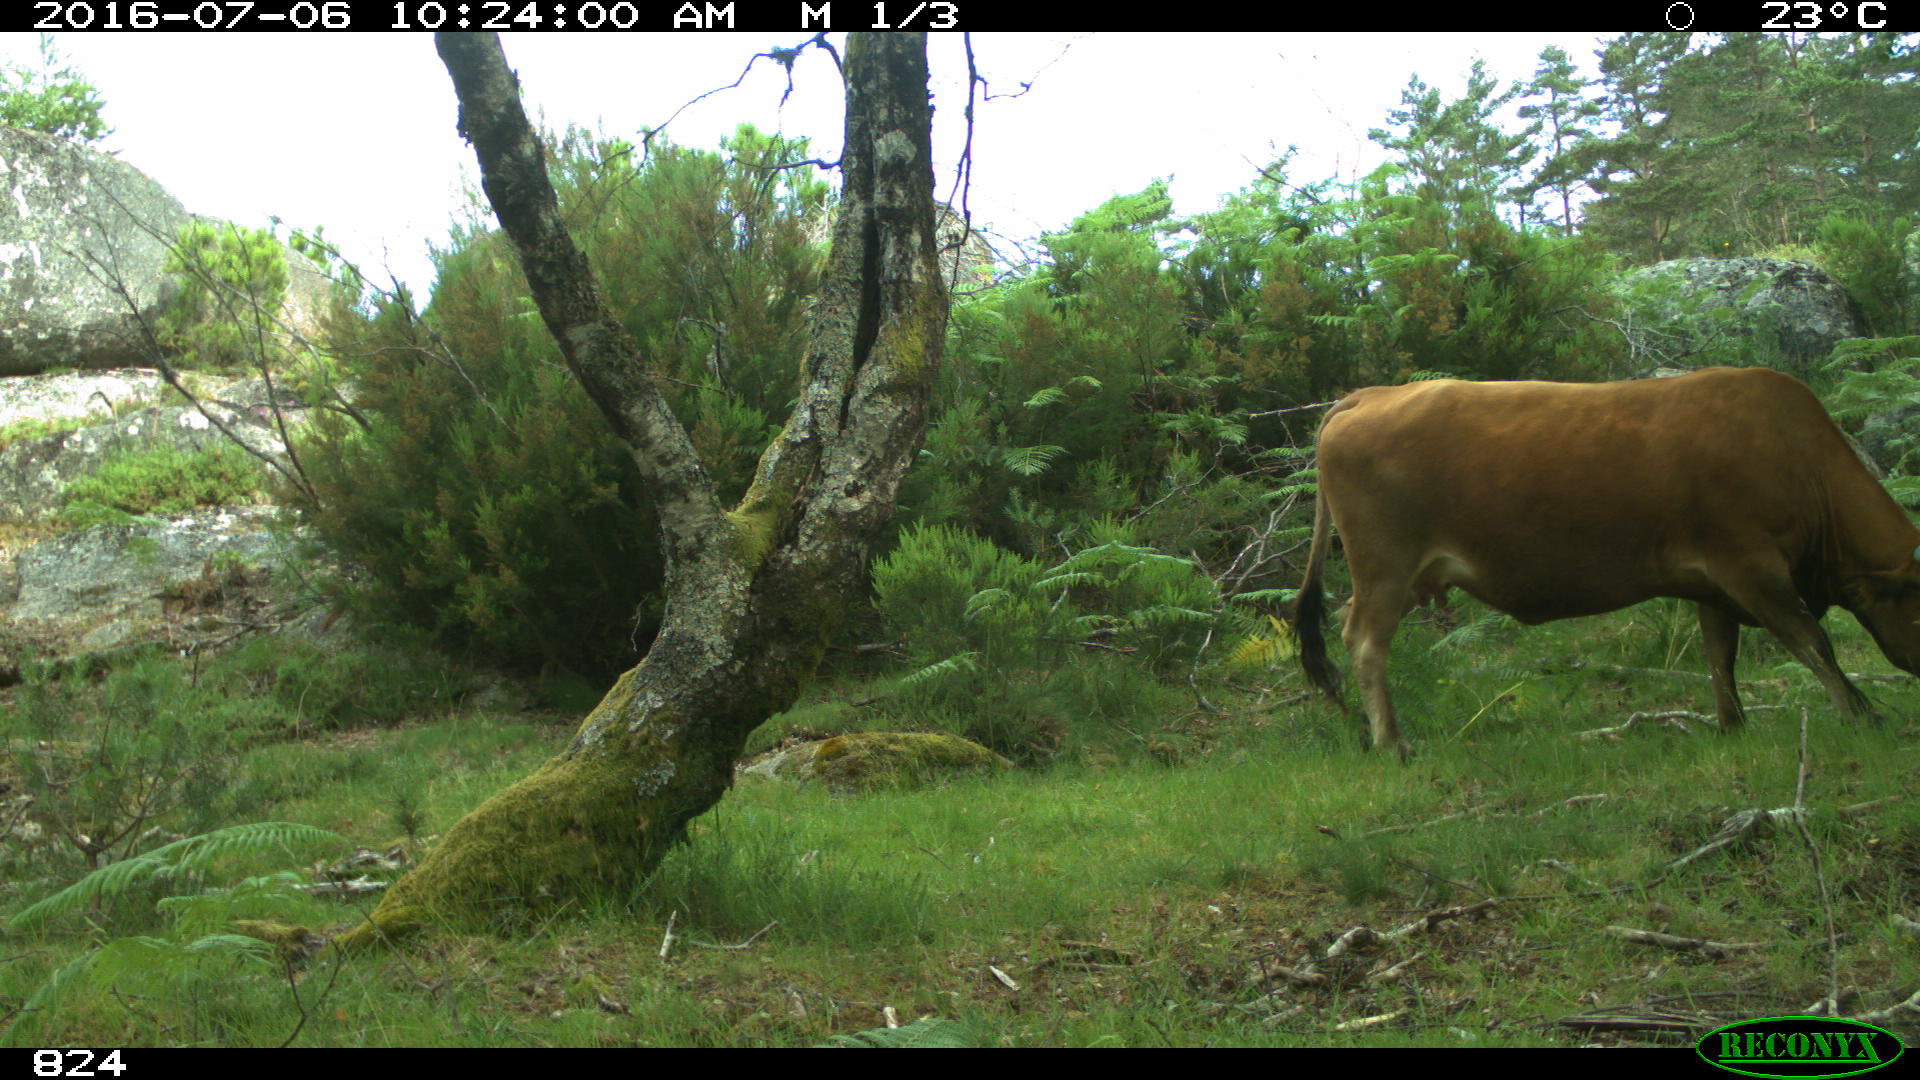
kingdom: Animalia
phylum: Chordata
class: Mammalia
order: Artiodactyla
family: Bovidae
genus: Bos
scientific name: Bos taurus
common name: Domesticated cattle
